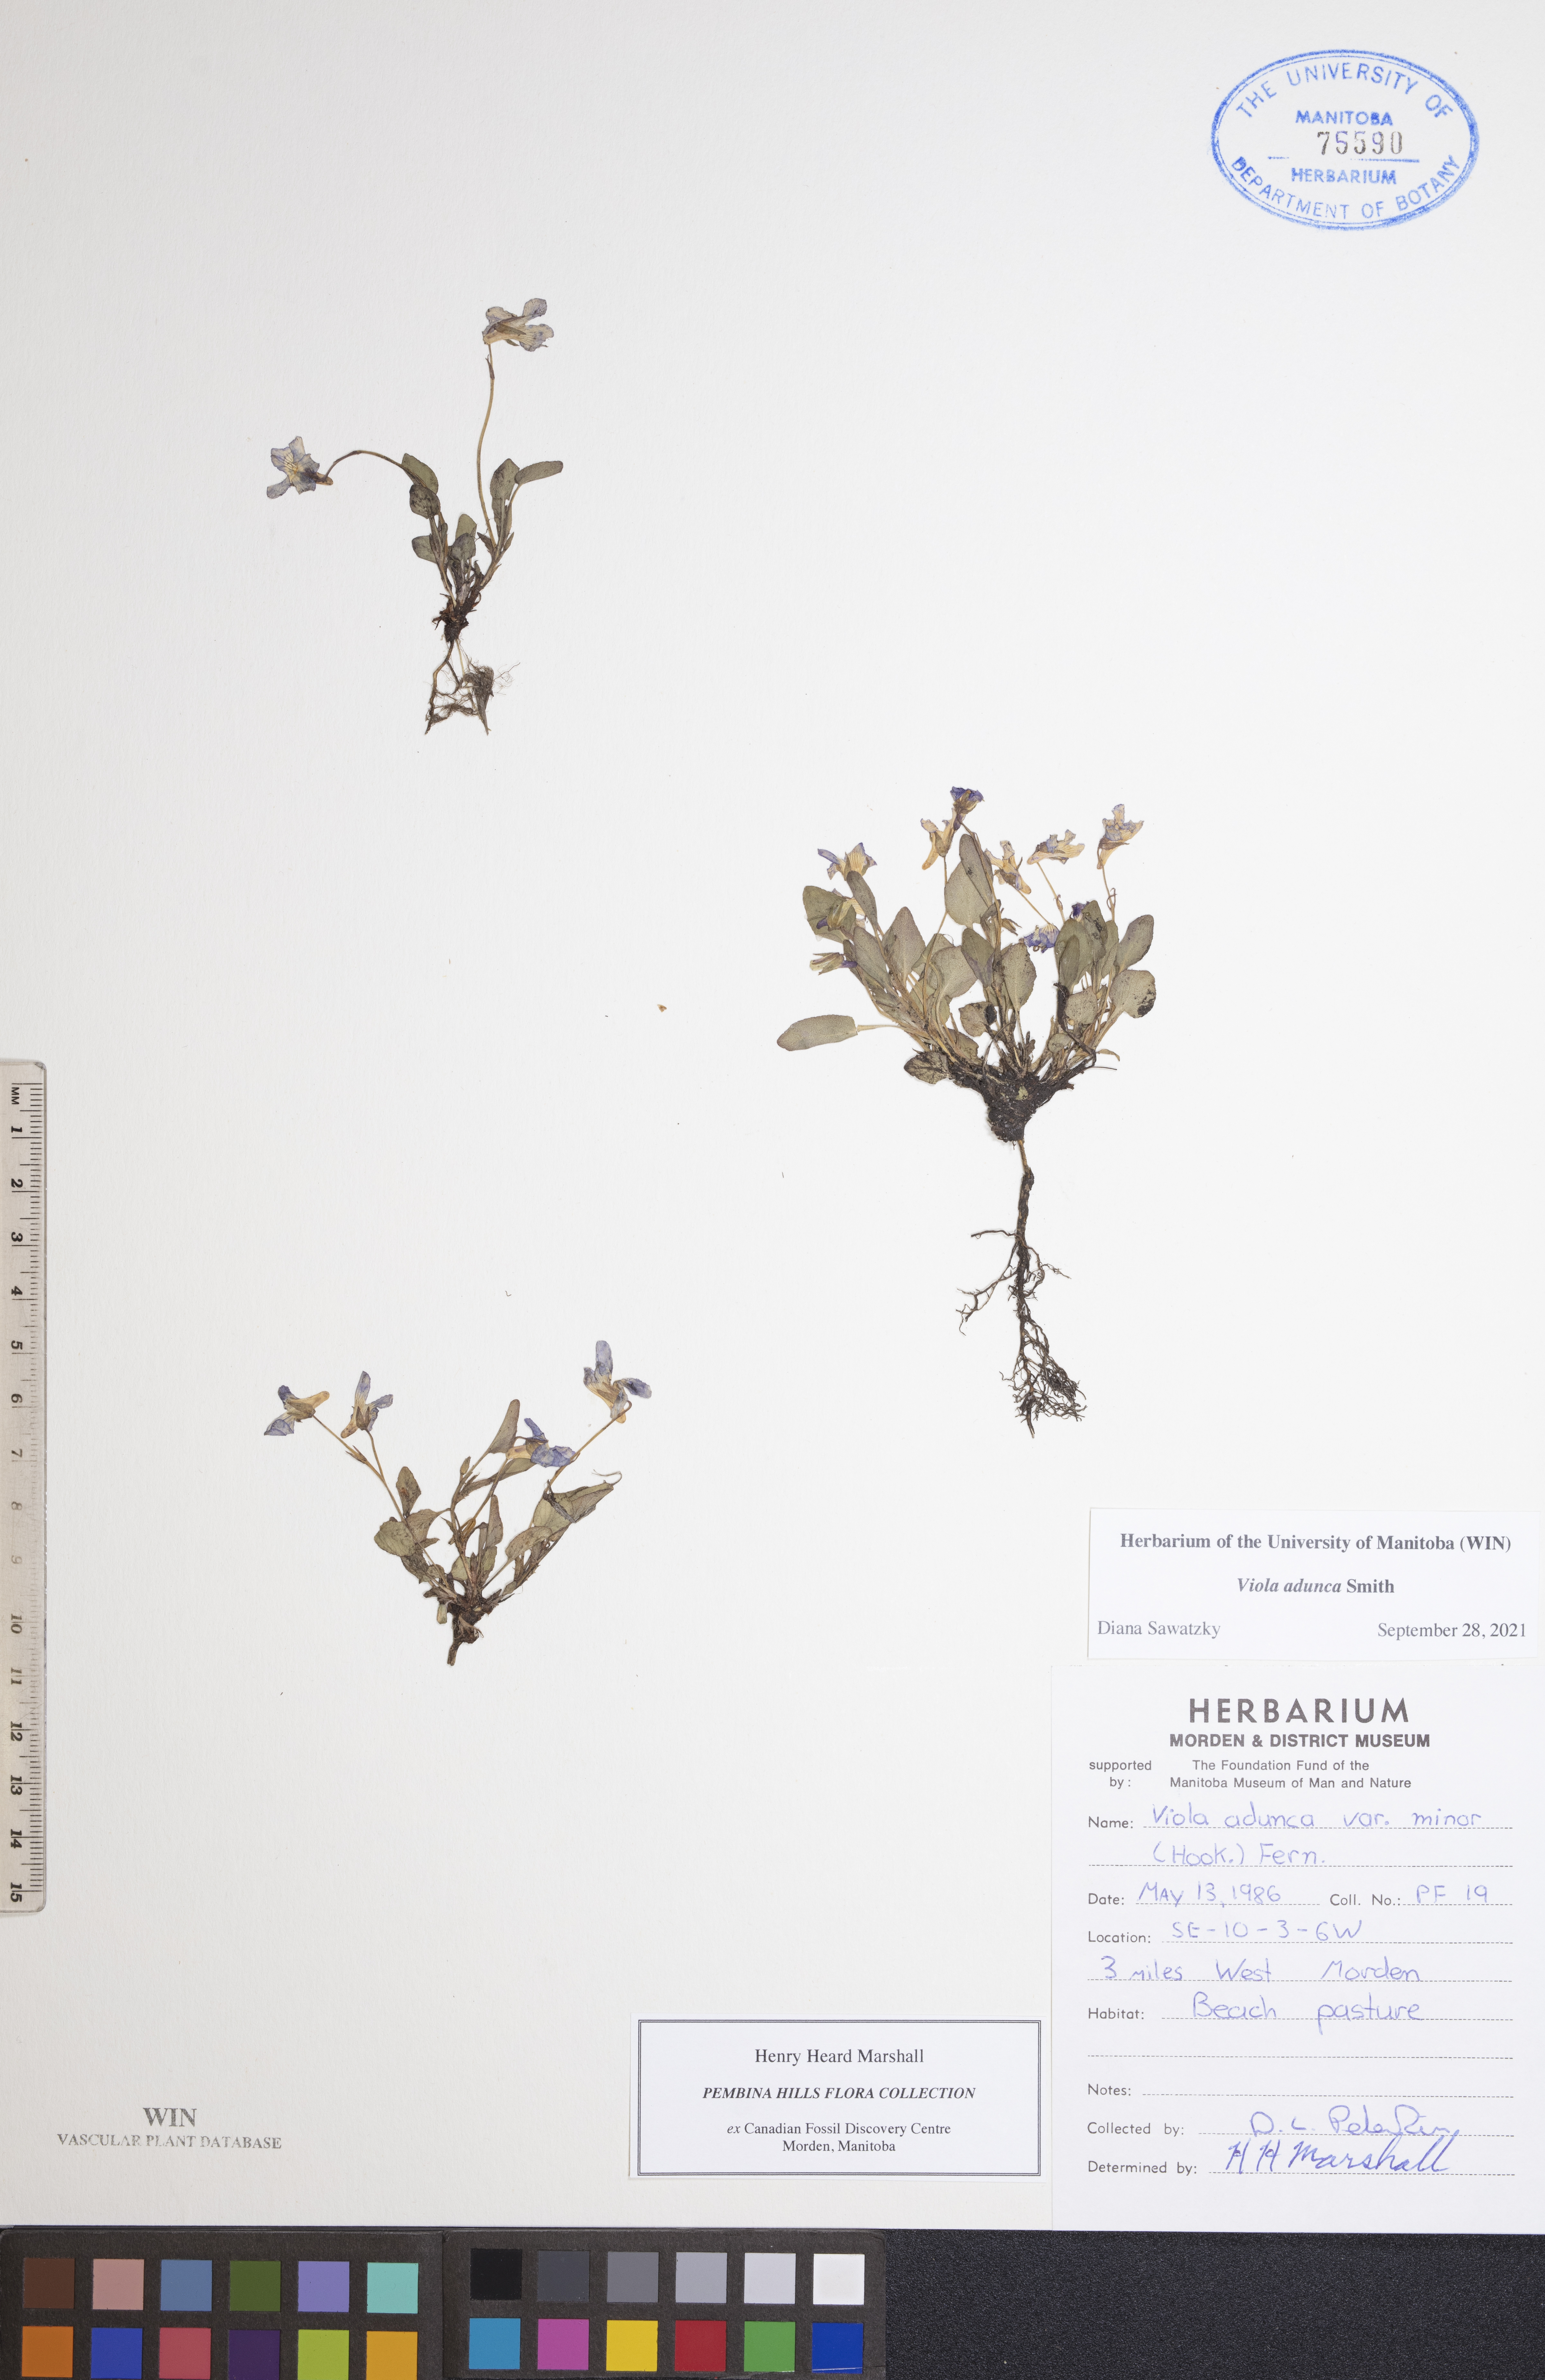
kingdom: Plantae
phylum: Tracheophyta
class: Magnoliopsida
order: Malpighiales
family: Violaceae
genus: Viola
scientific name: Viola adunca
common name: Sand violet
